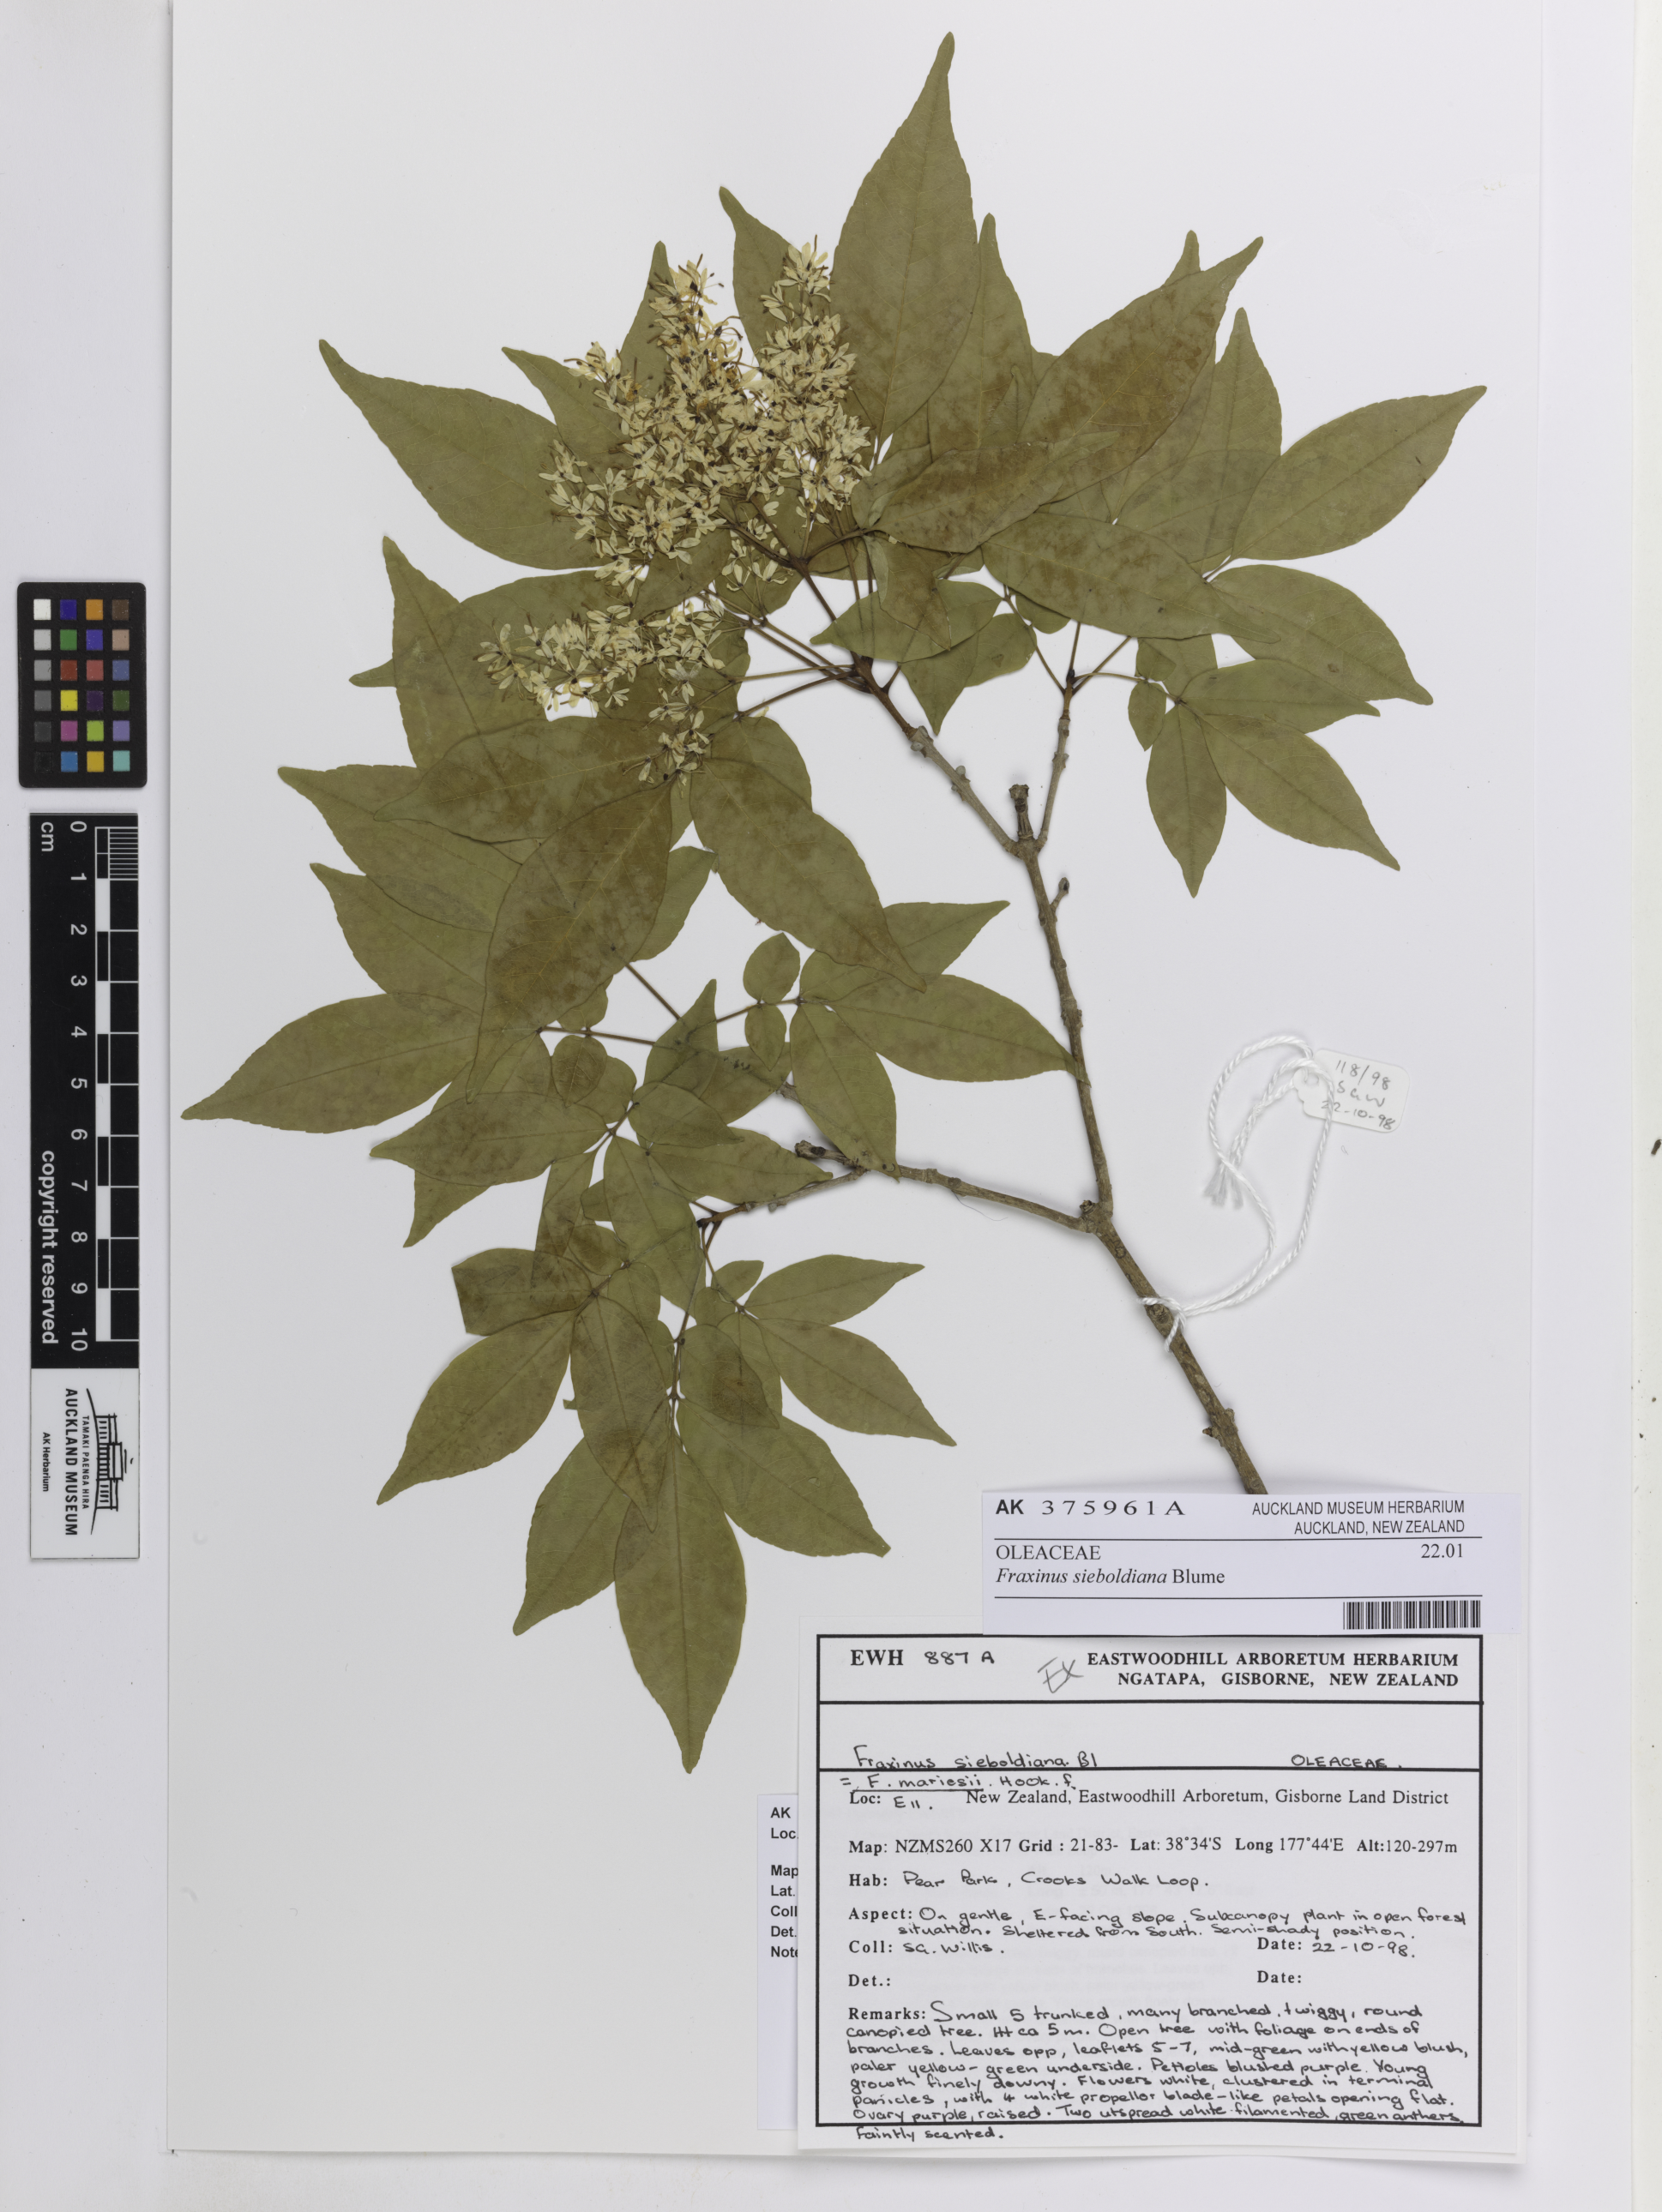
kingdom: Plantae
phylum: Tracheophyta
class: Magnoliopsida
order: Lamiales
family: Oleaceae
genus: Fraxinus
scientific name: Fraxinus sieboldiana
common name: Chinese flowering ash
